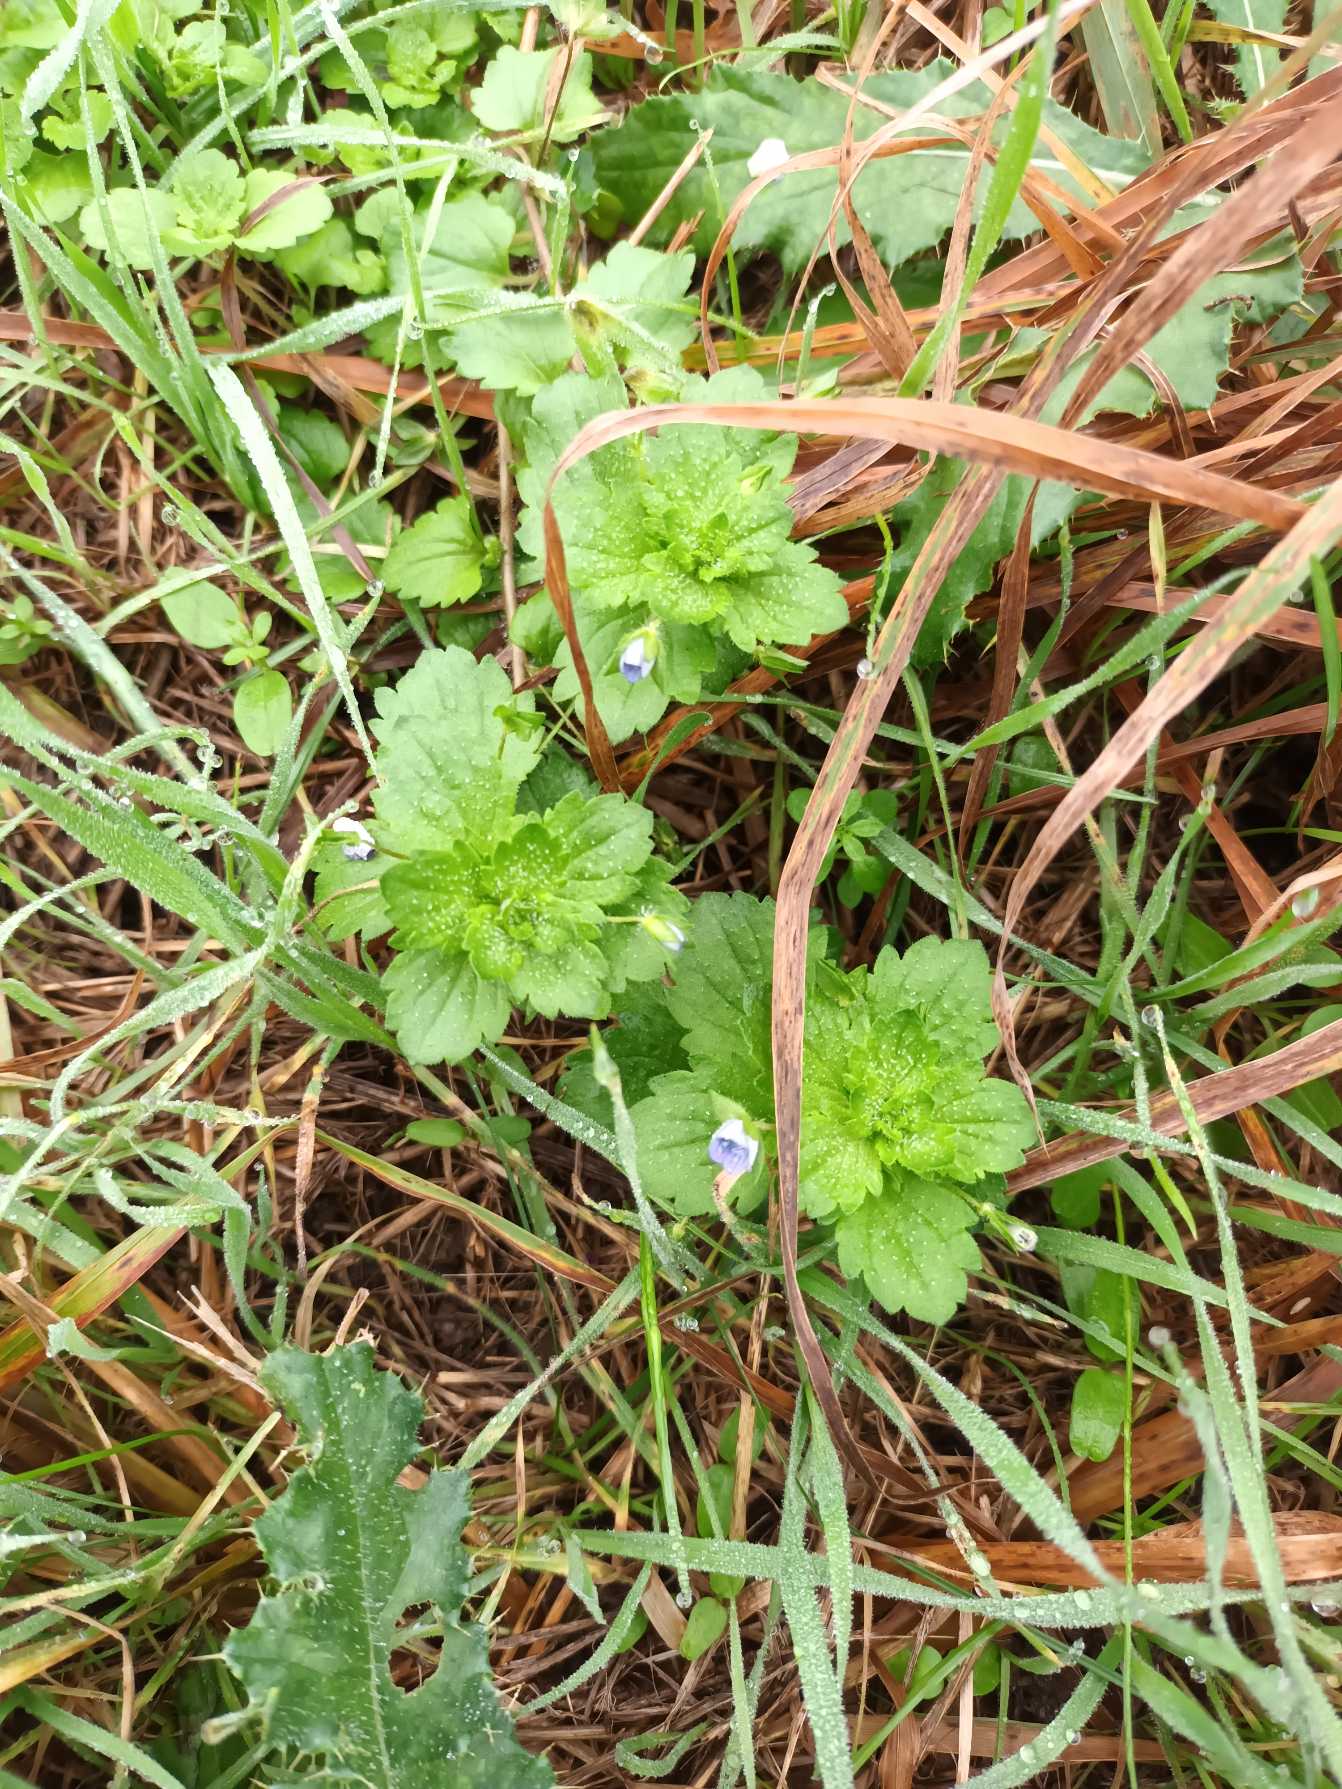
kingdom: Plantae
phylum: Tracheophyta
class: Magnoliopsida
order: Lamiales
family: Plantaginaceae
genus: Veronica
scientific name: Veronica persica
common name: Storkronet ærenpris
